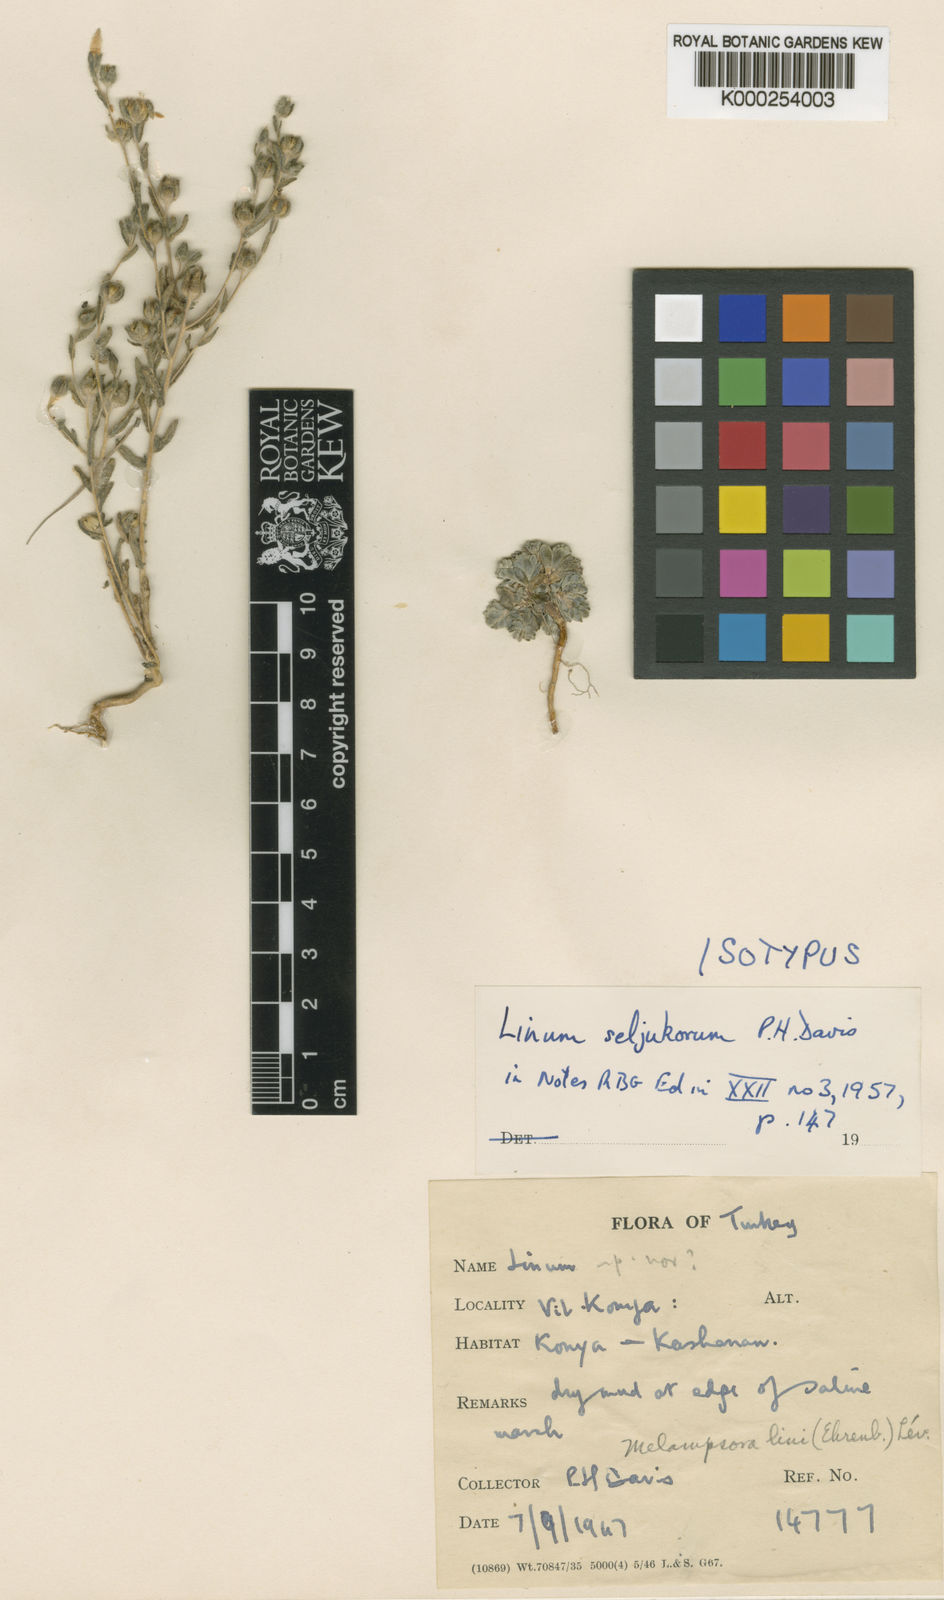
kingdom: Plantae
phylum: Tracheophyta
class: Magnoliopsida
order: Malpighiales
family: Linaceae
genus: Linum
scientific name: Linum seljukorum
